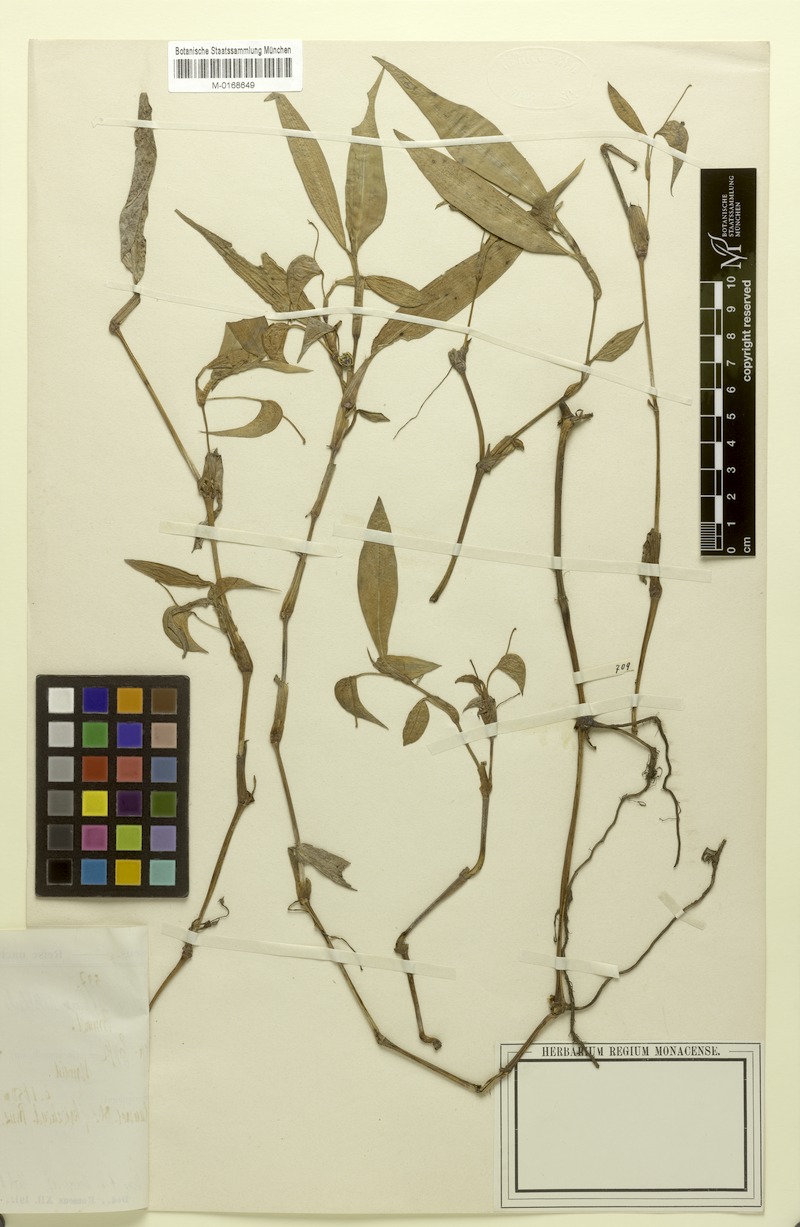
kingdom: Plantae
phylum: Tracheophyta
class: Liliopsida
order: Commelinales
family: Commelinaceae
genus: Commelina
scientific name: Commelina sikkimensis
